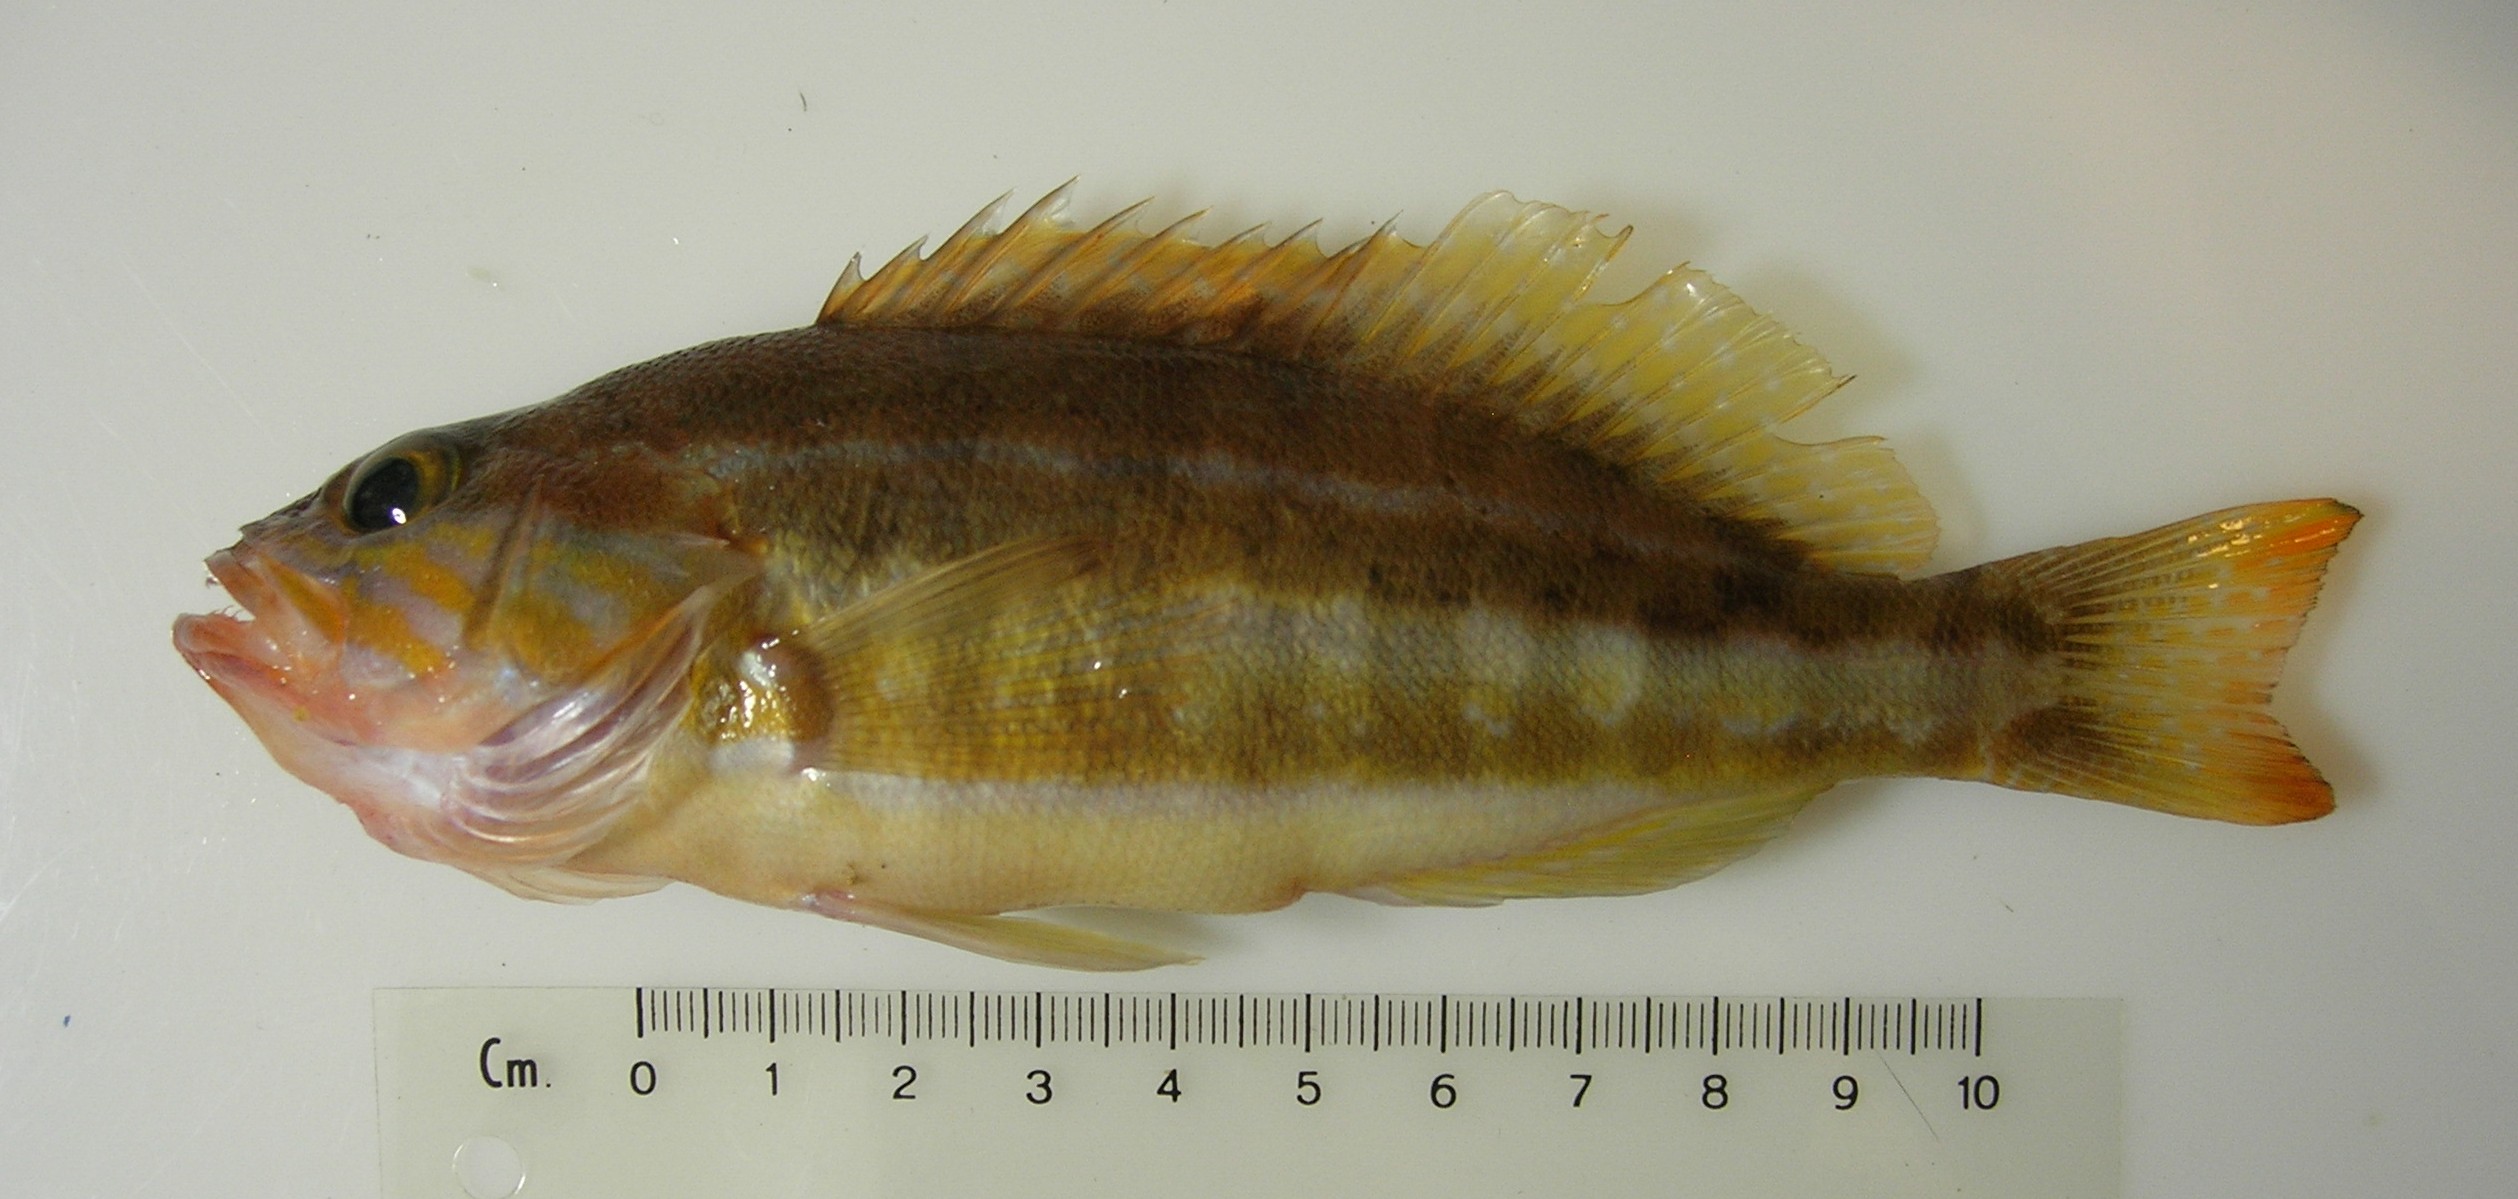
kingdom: Animalia
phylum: Chordata
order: Perciformes
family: Serranidae
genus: Serranus
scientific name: Serranus cabrilla
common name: Comber
